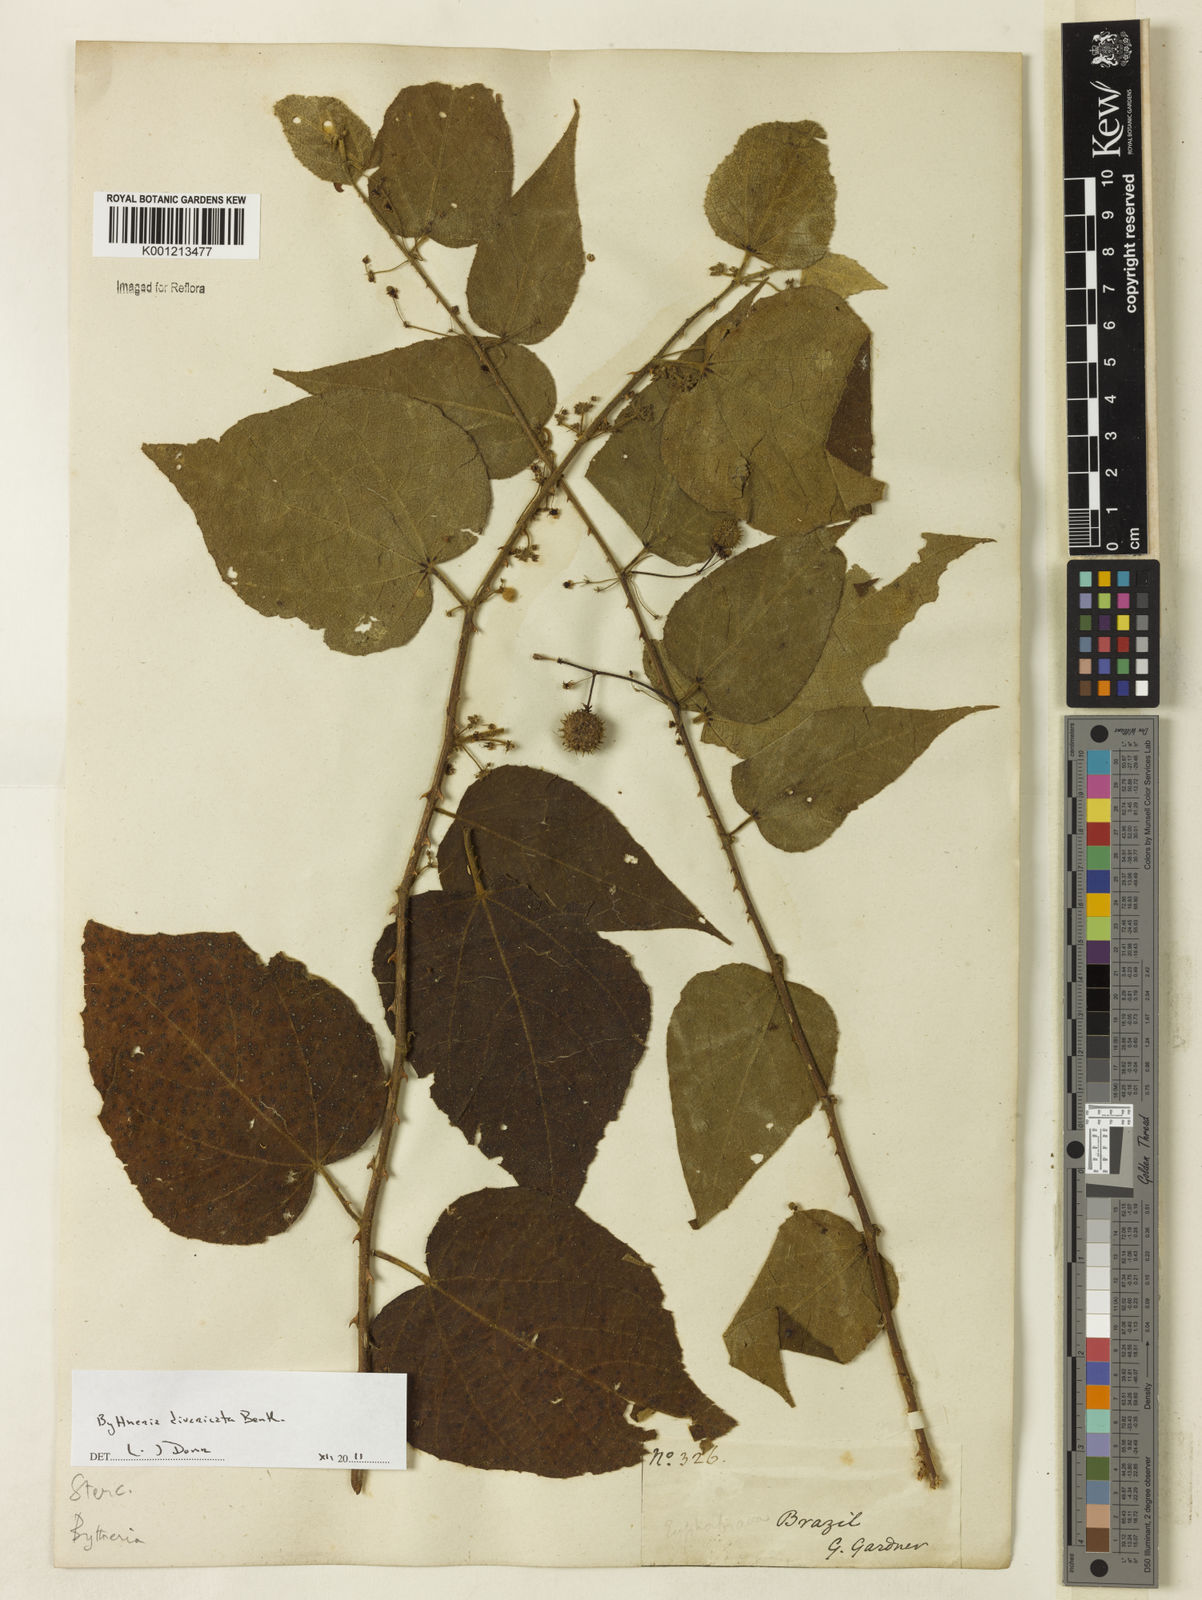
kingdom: Plantae
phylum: Tracheophyta
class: Magnoliopsida
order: Malvales
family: Malvaceae
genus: Byttneria
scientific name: Byttneria divaricata
